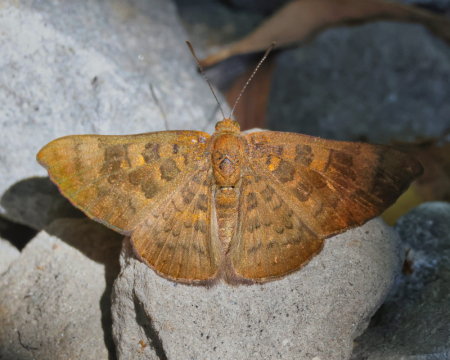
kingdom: Animalia
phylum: Arthropoda
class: Insecta
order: Lepidoptera
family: Lycaenidae
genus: Emesis
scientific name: Emesis tenedia
